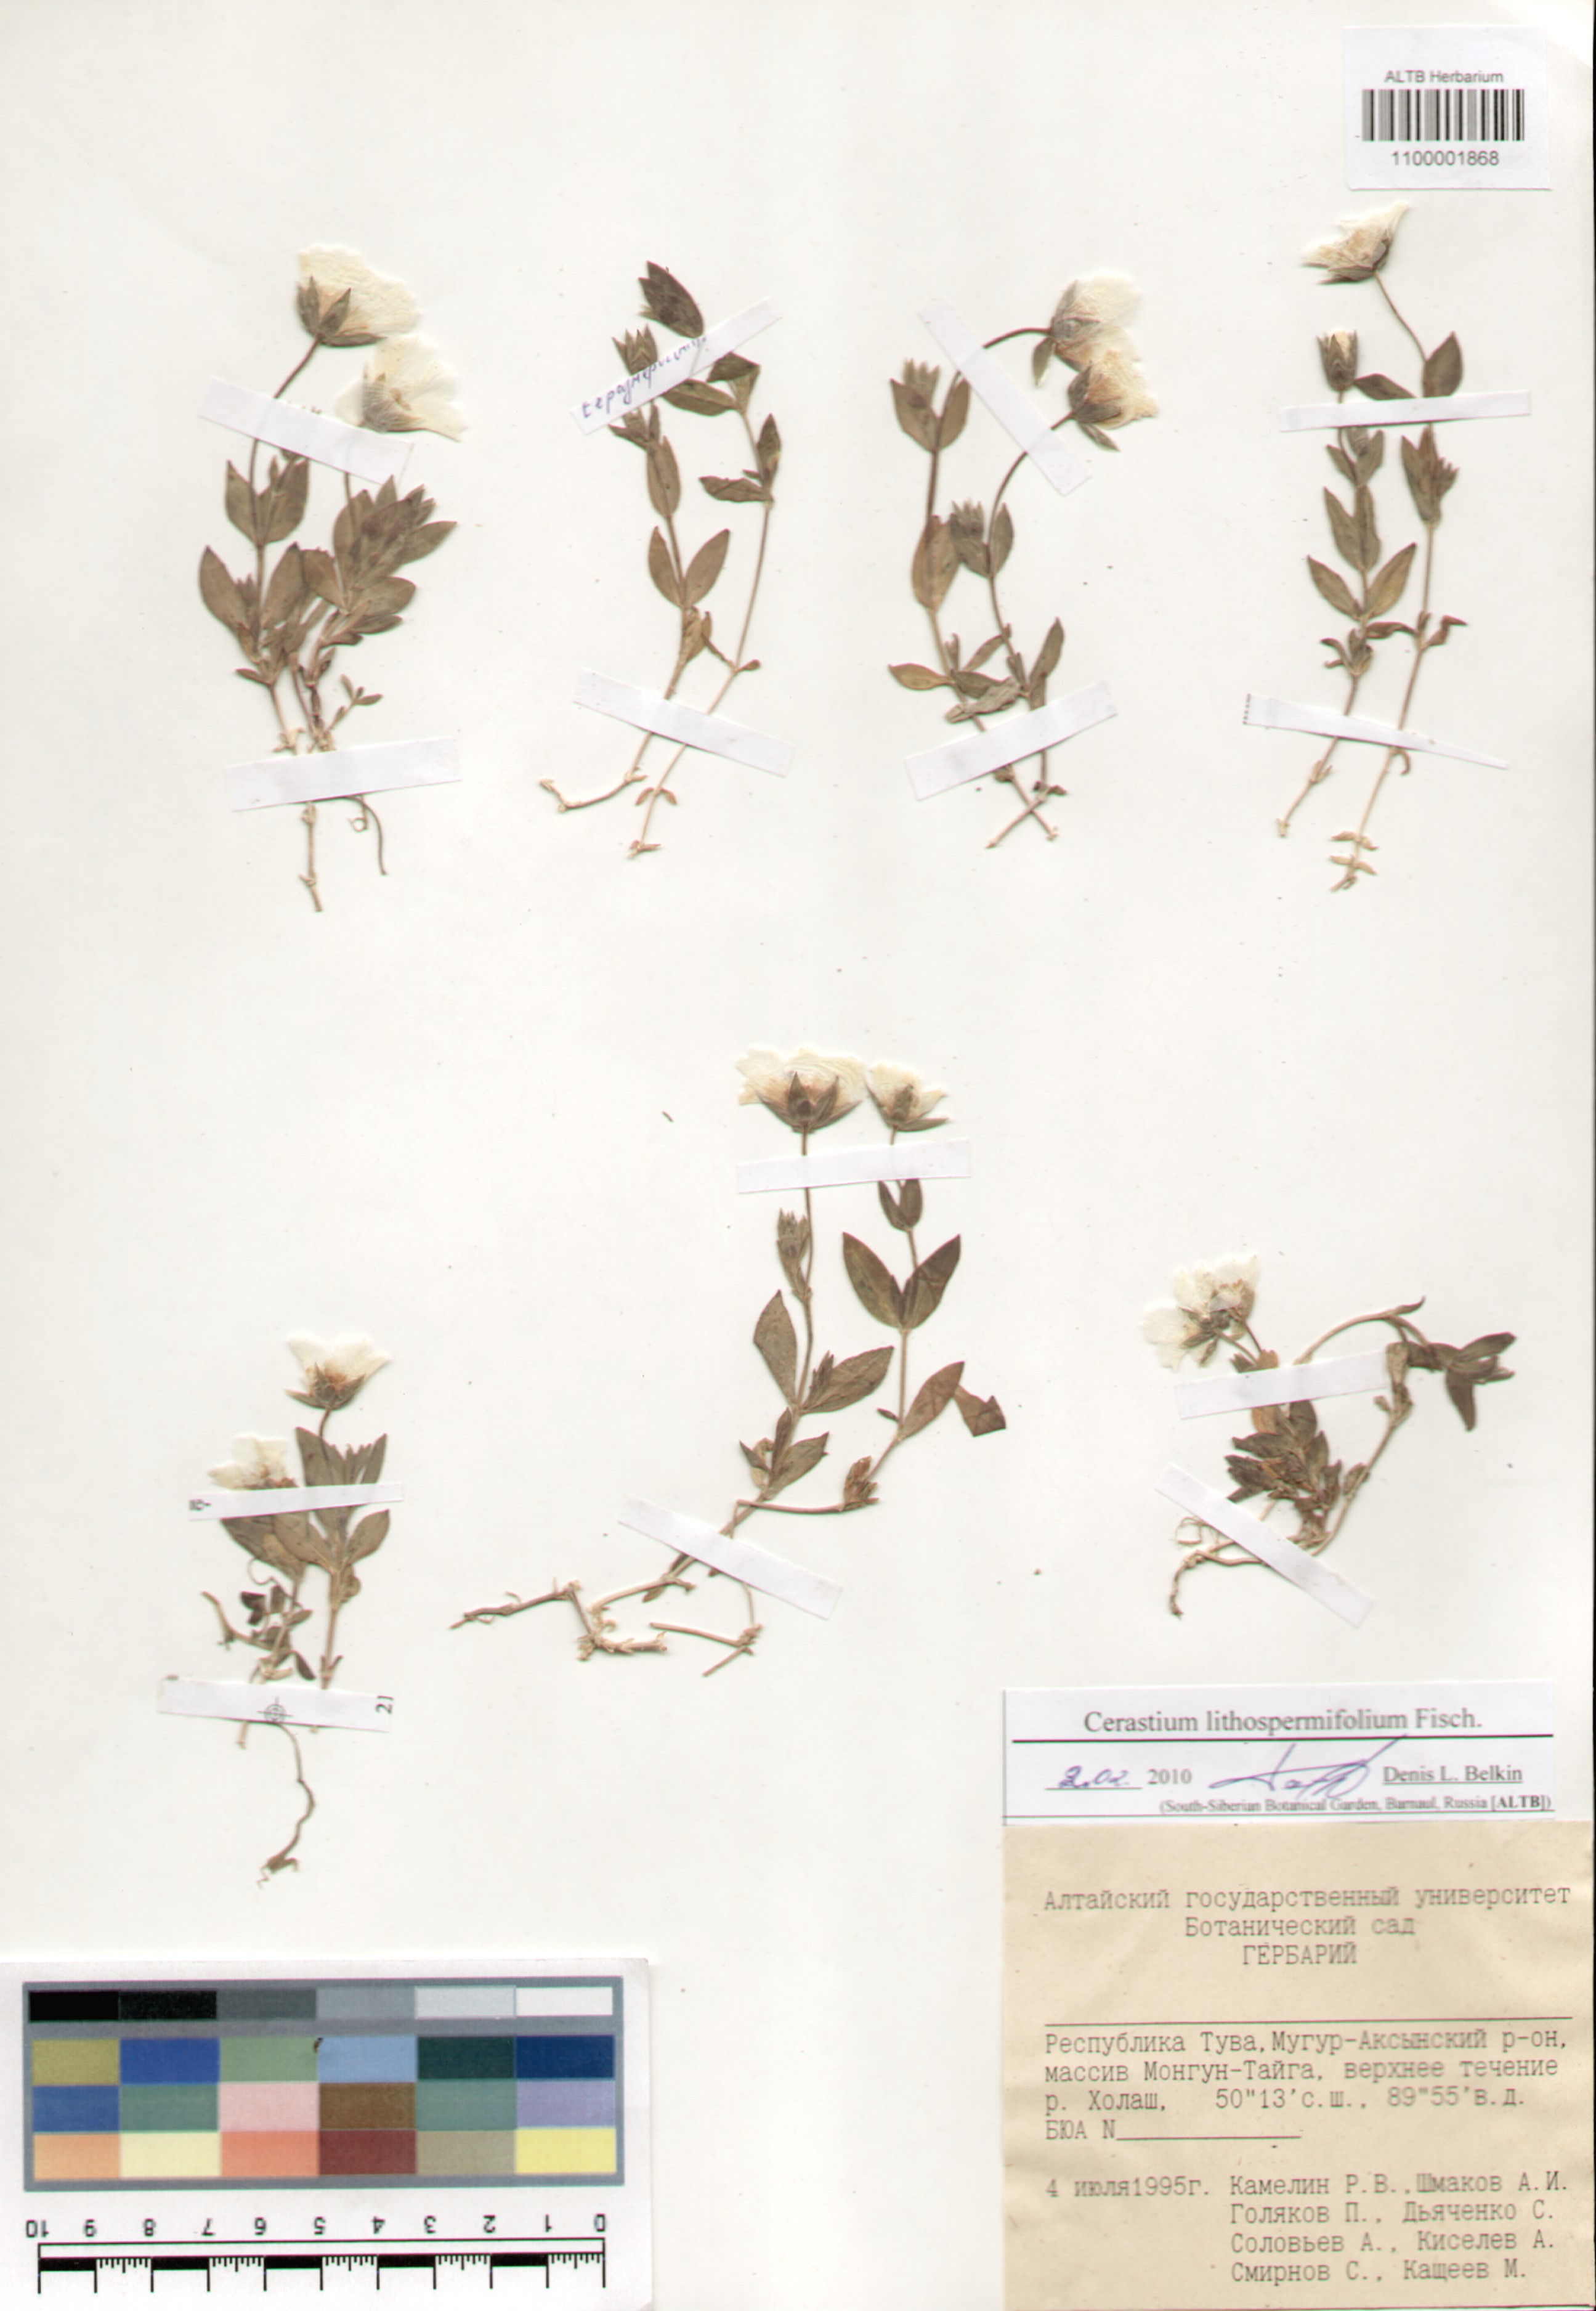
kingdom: Plantae
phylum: Tracheophyta
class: Magnoliopsida
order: Caryophyllales
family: Caryophyllaceae
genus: Cerastium
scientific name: Cerastium lithospermifolium
